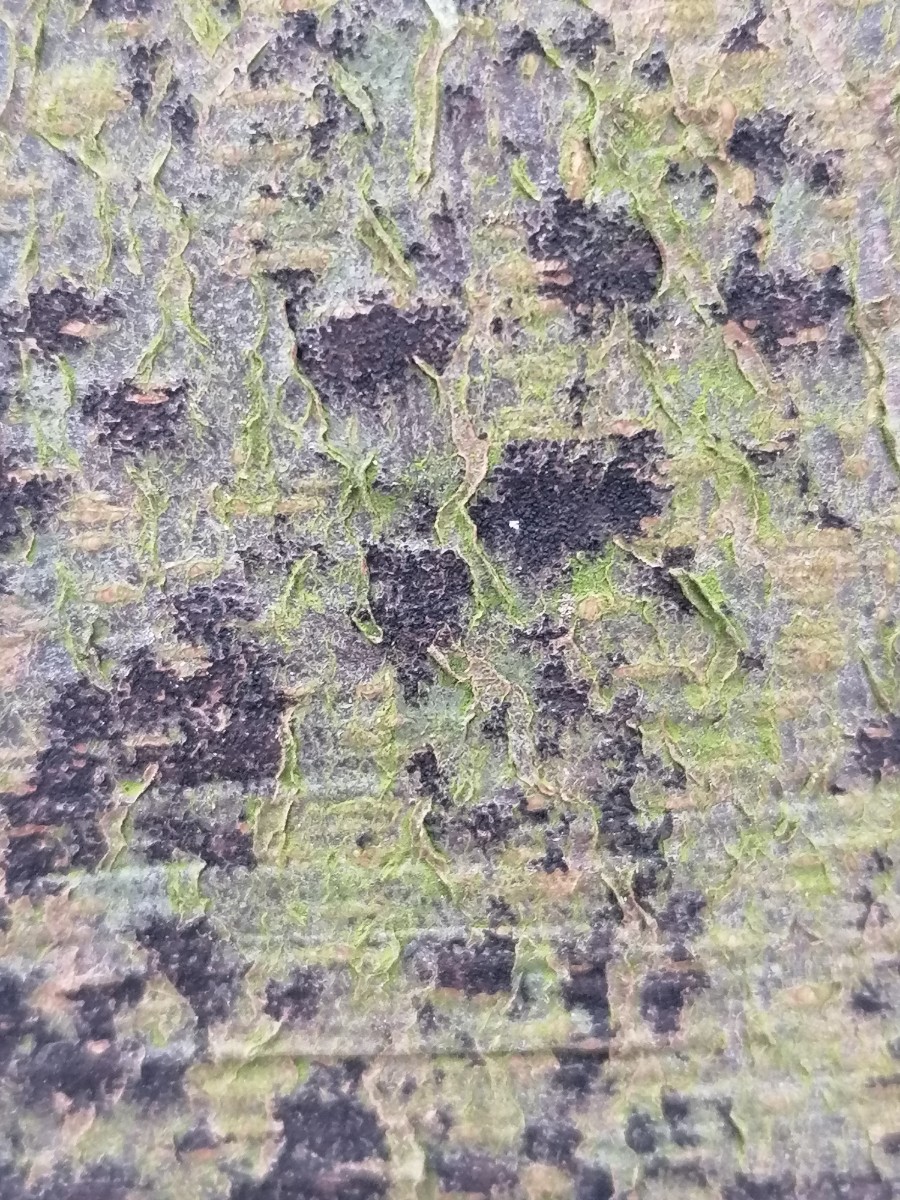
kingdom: Fungi
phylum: Ascomycota
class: Leotiomycetes
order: Rhytismatales
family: Ascodichaenaceae
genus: Ascodichaena
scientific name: Ascodichaena rugosa
